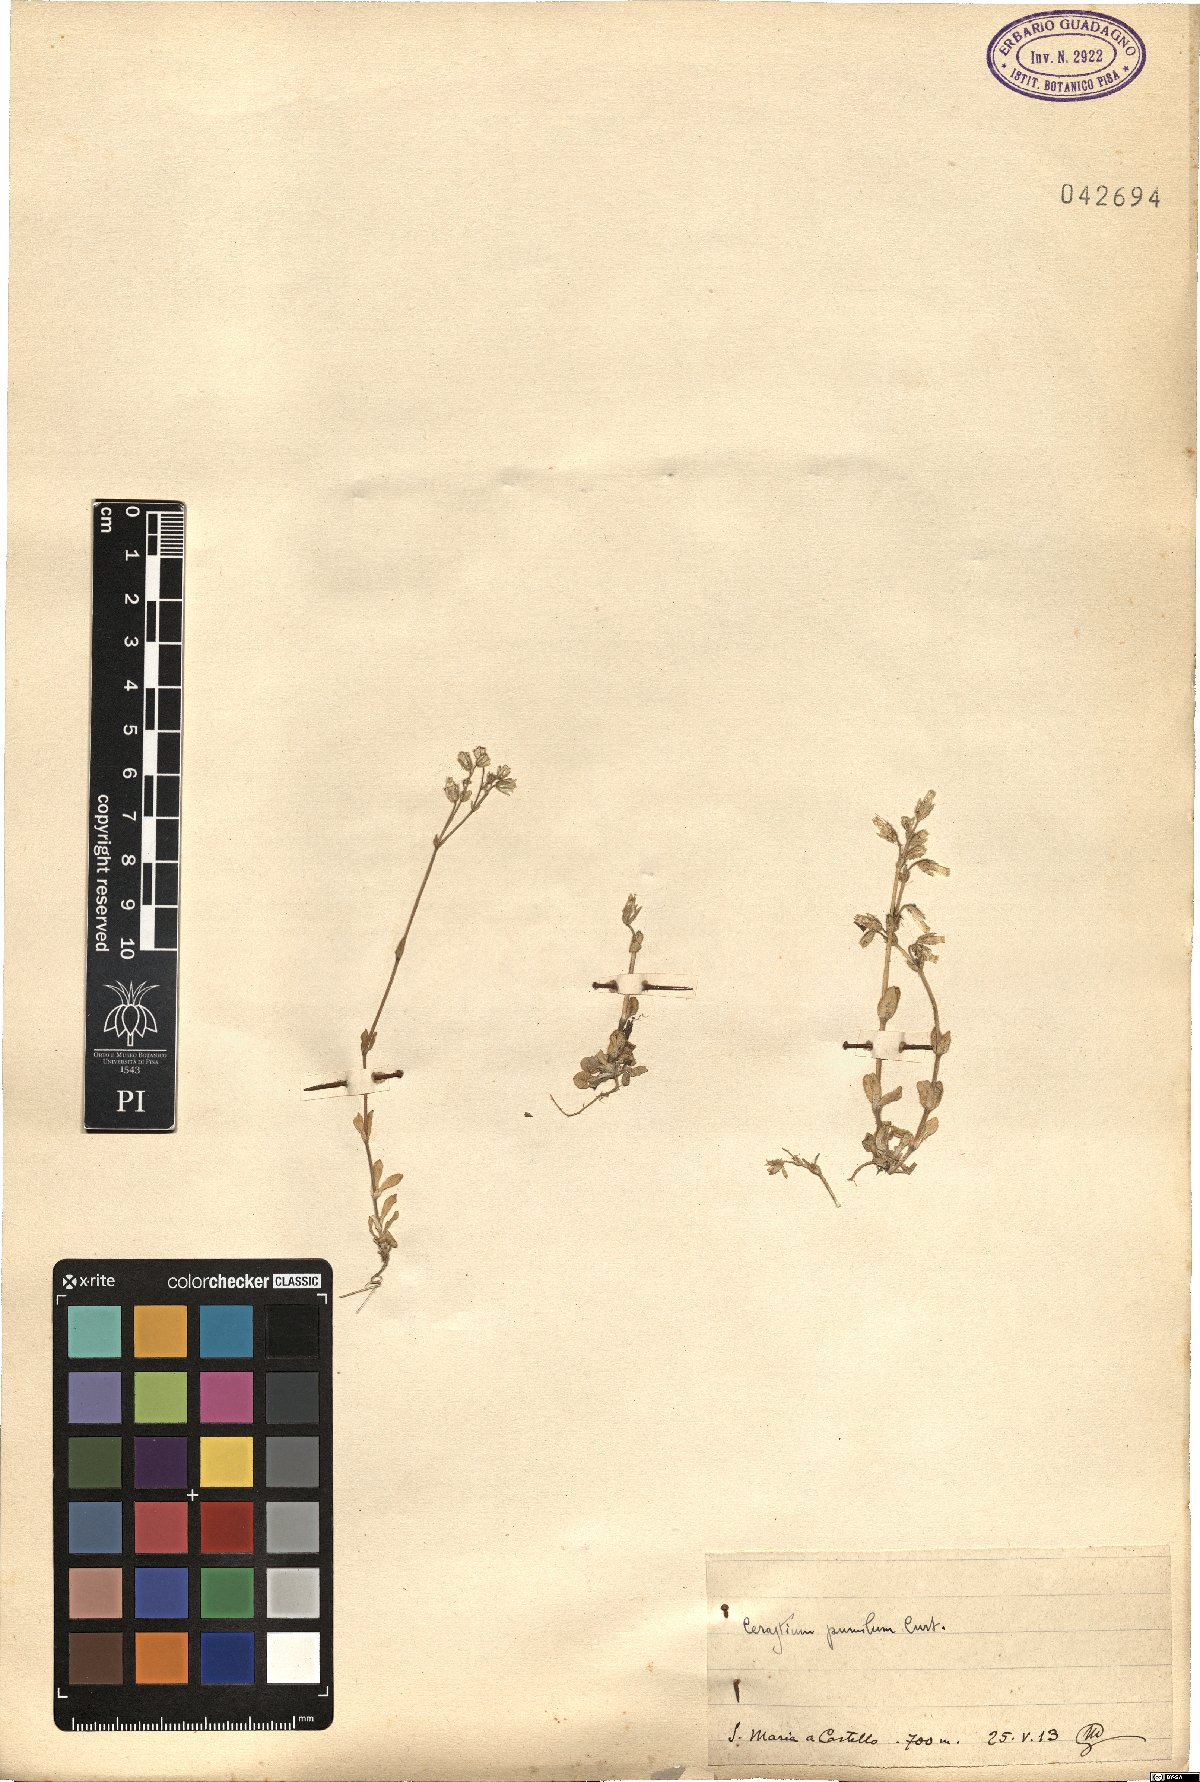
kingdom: Plantae
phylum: Tracheophyta
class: Magnoliopsida
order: Caryophyllales
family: Caryophyllaceae
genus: Cerastium
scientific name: Cerastium pumilum
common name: Dwarf mouse-ear
